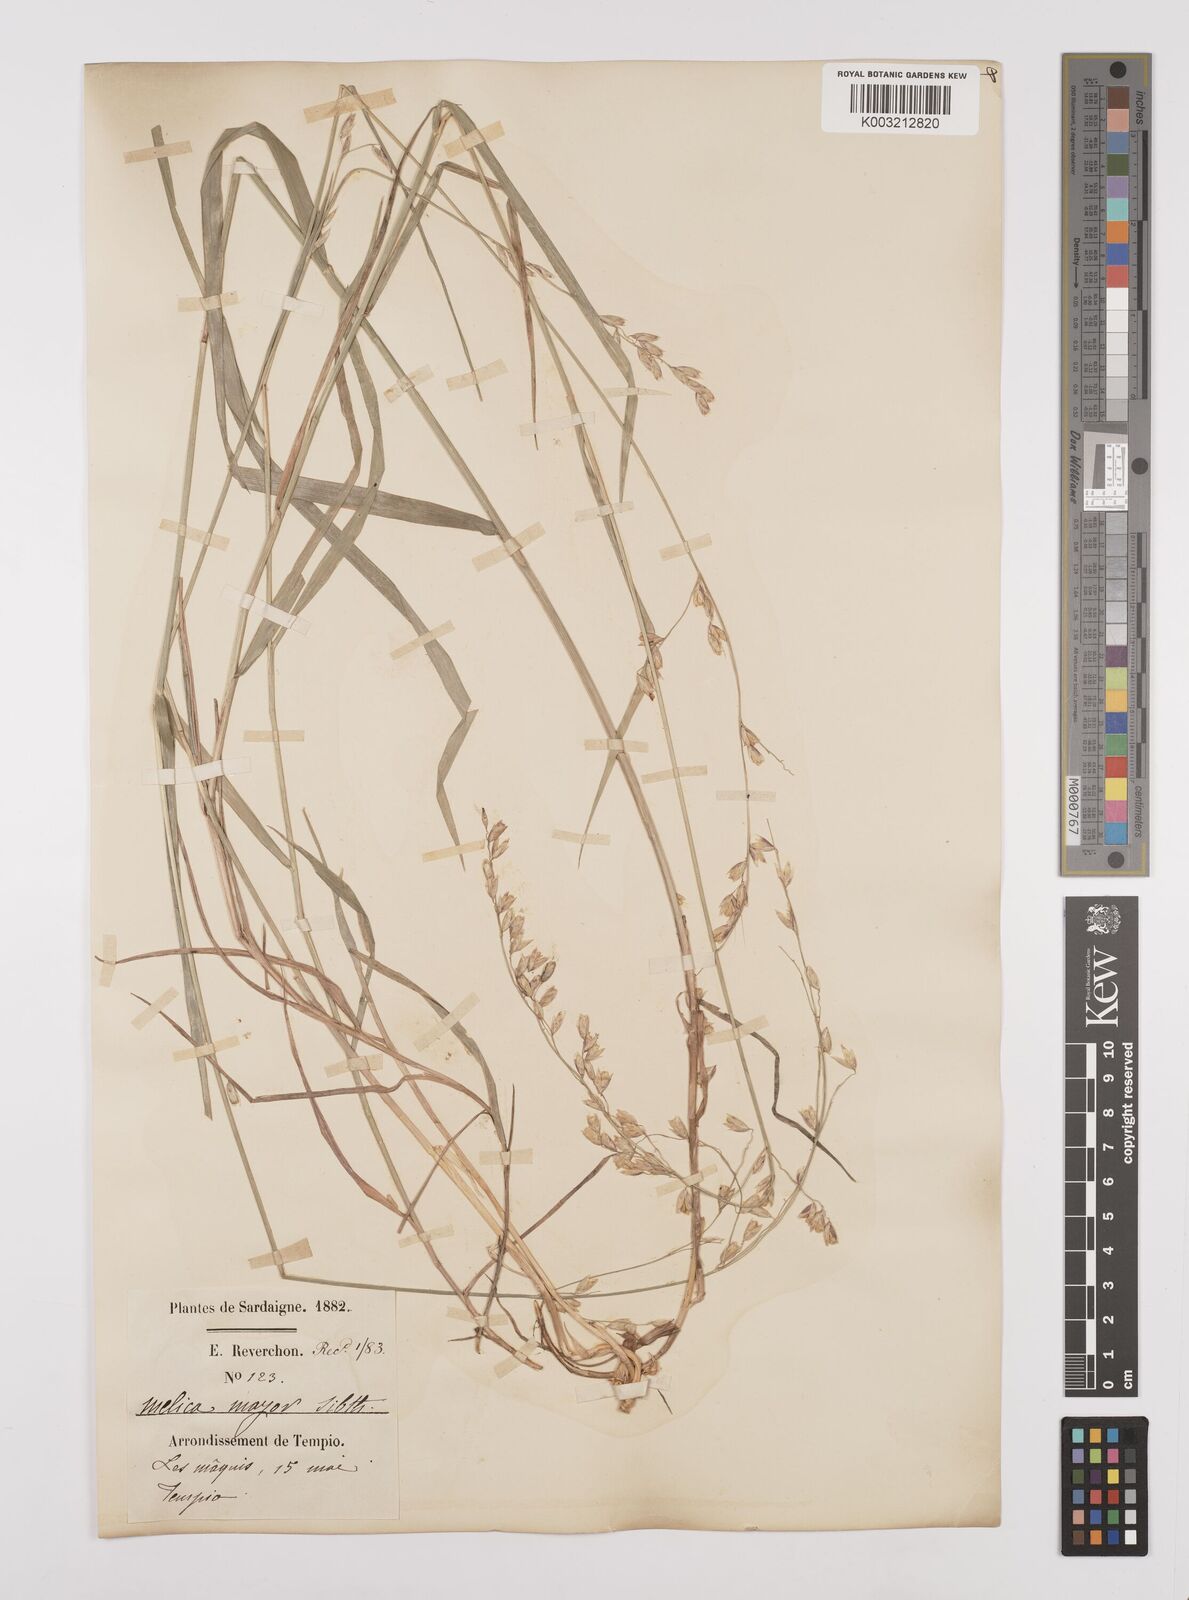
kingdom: Plantae
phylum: Tracheophyta
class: Liliopsida
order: Poales
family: Poaceae
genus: Melica
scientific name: Melica minuta
